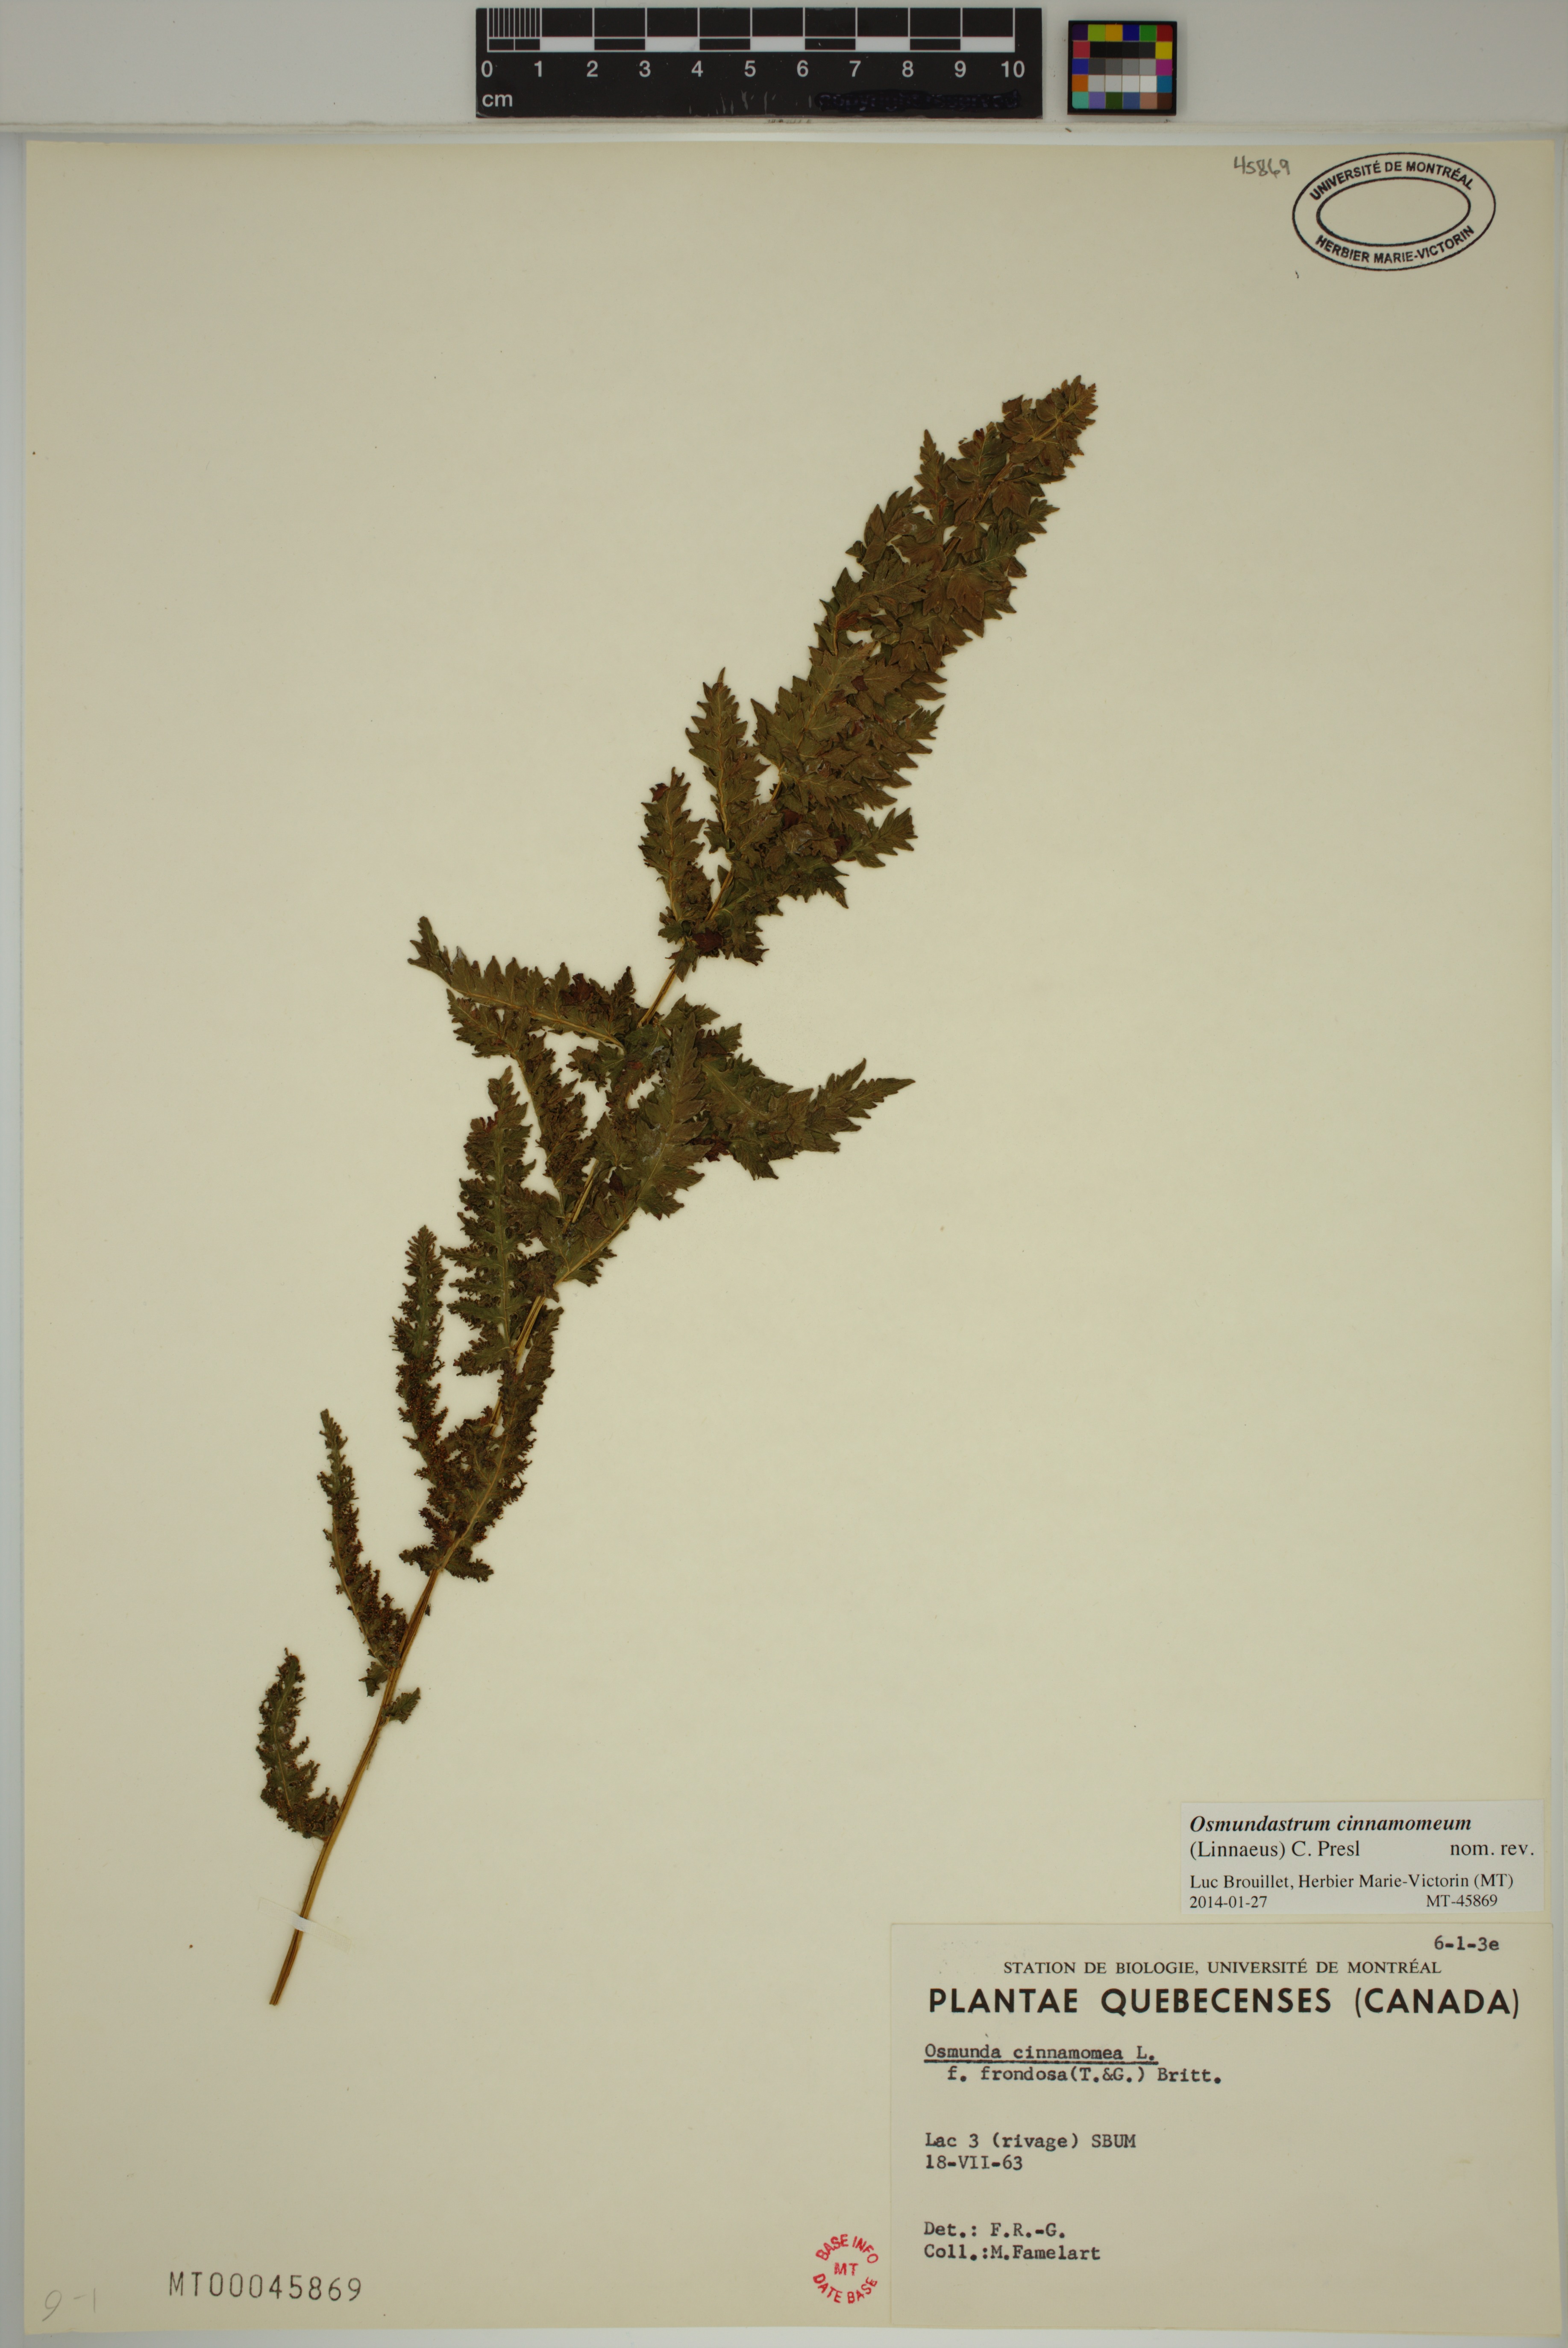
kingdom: Plantae
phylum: Tracheophyta
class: Polypodiopsida
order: Osmundales
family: Osmundaceae
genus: Osmundastrum
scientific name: Osmundastrum cinnamomeum
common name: Cinnamon fern
